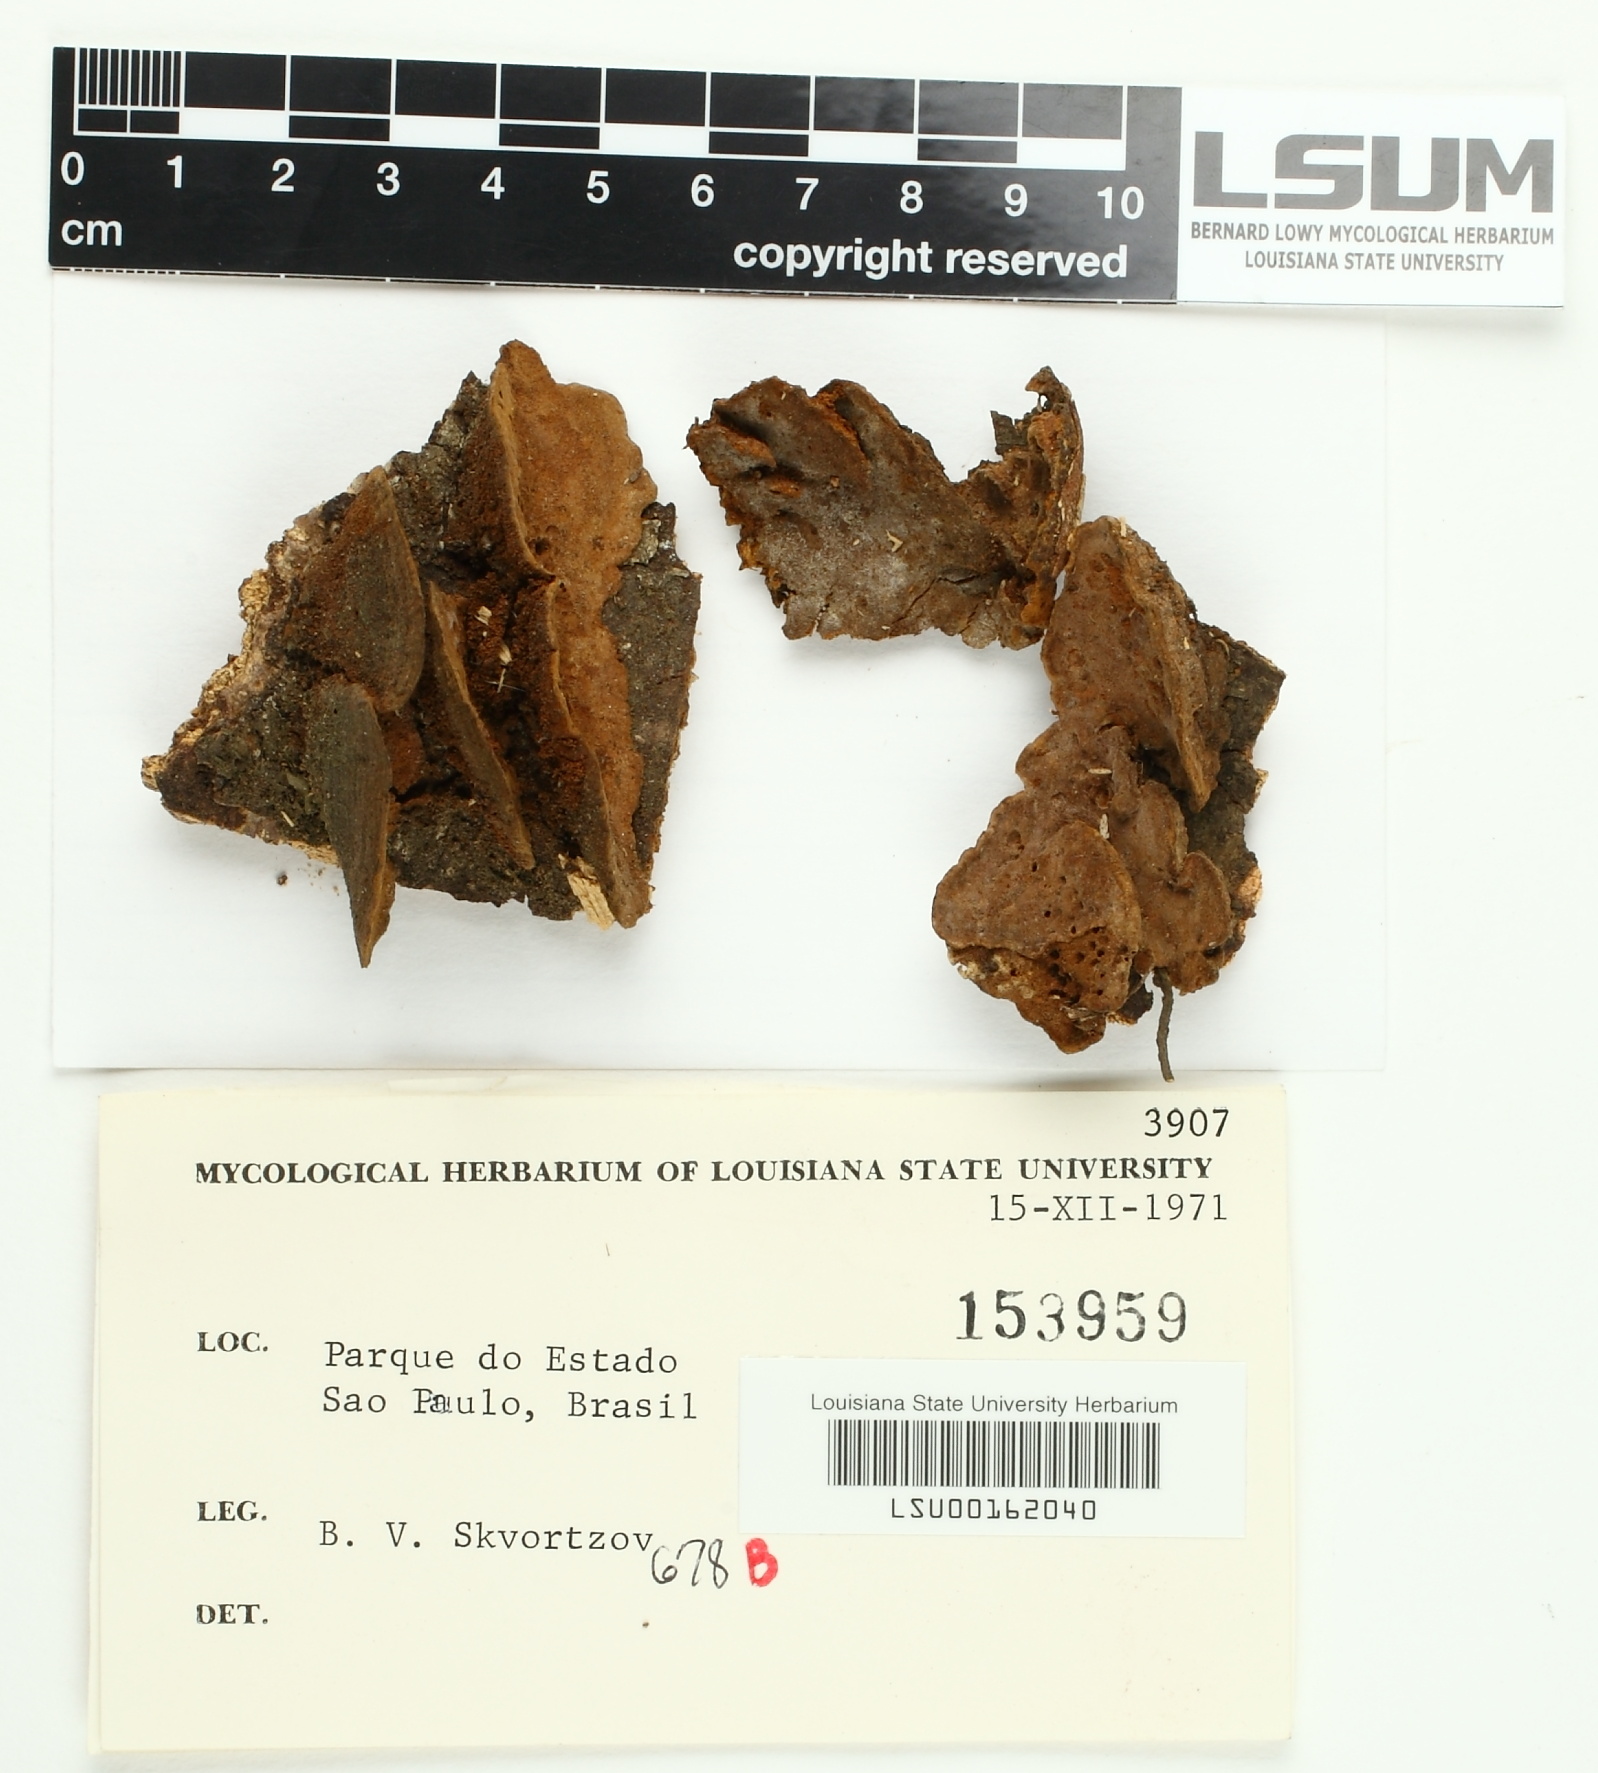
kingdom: Fungi
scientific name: Fungi
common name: Fungi
